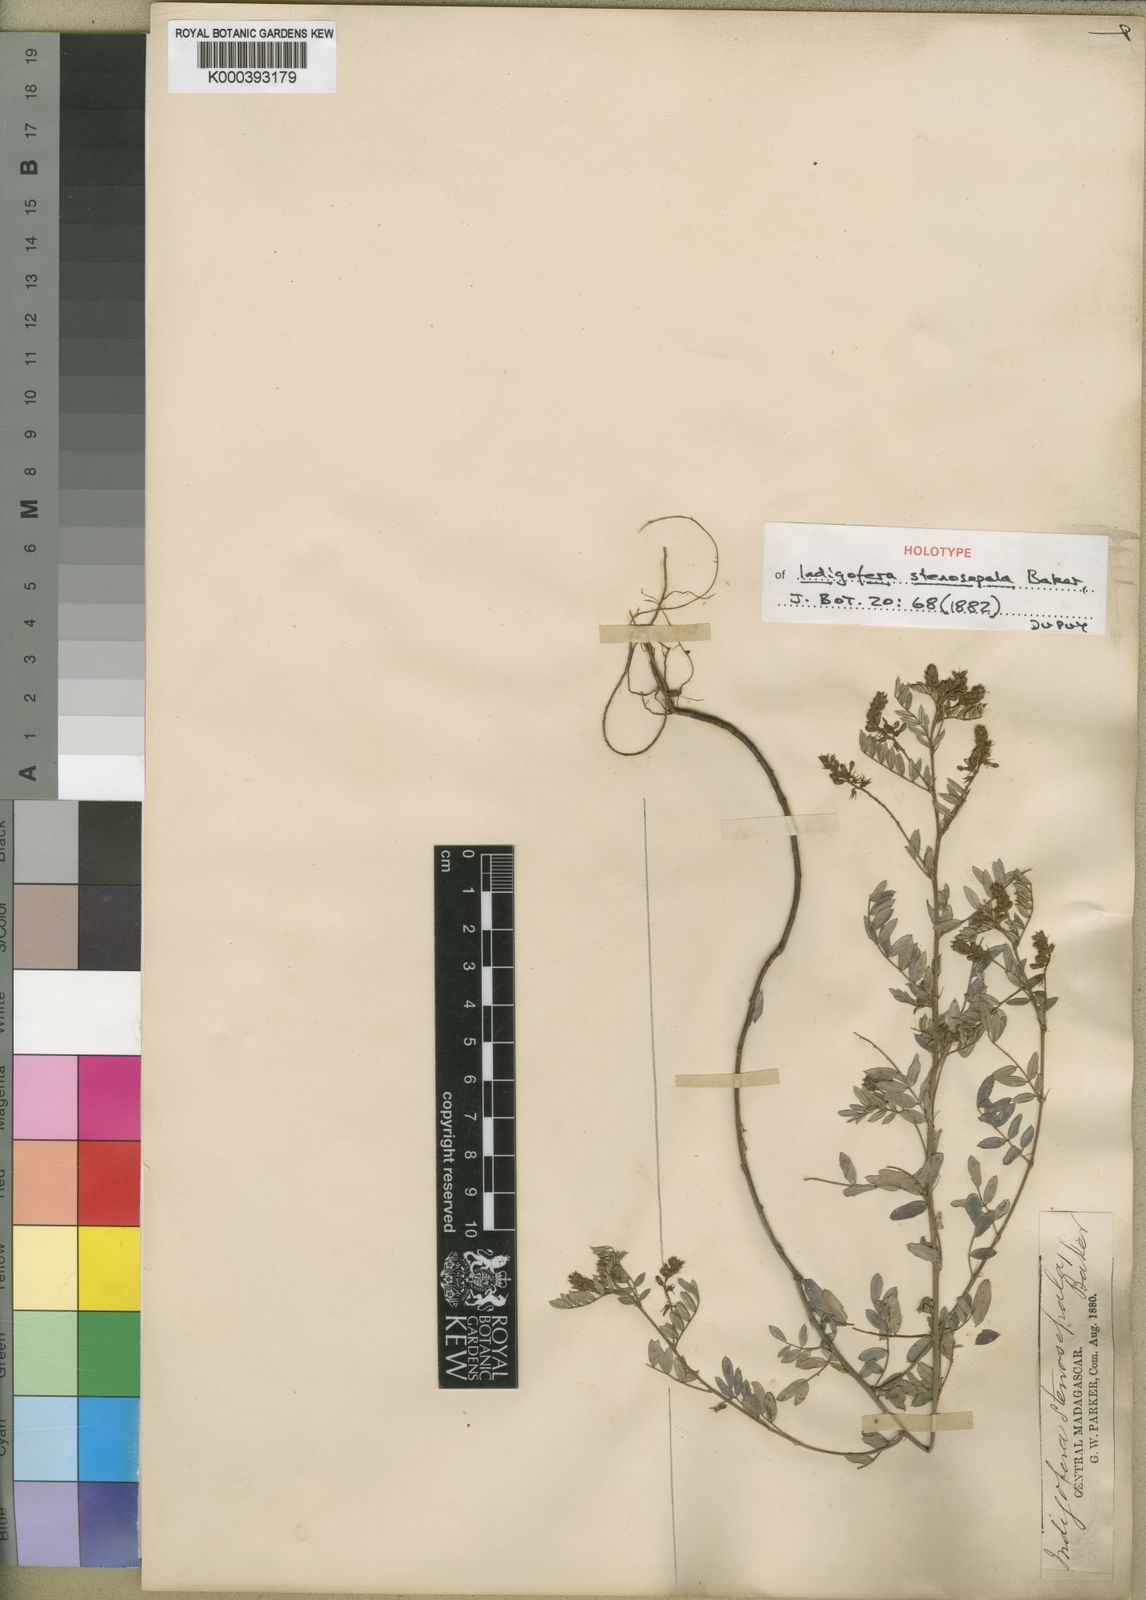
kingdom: Plantae
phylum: Tracheophyta
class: Magnoliopsida
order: Fabales
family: Fabaceae
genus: Indigofera
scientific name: Indigofera stenosepala
